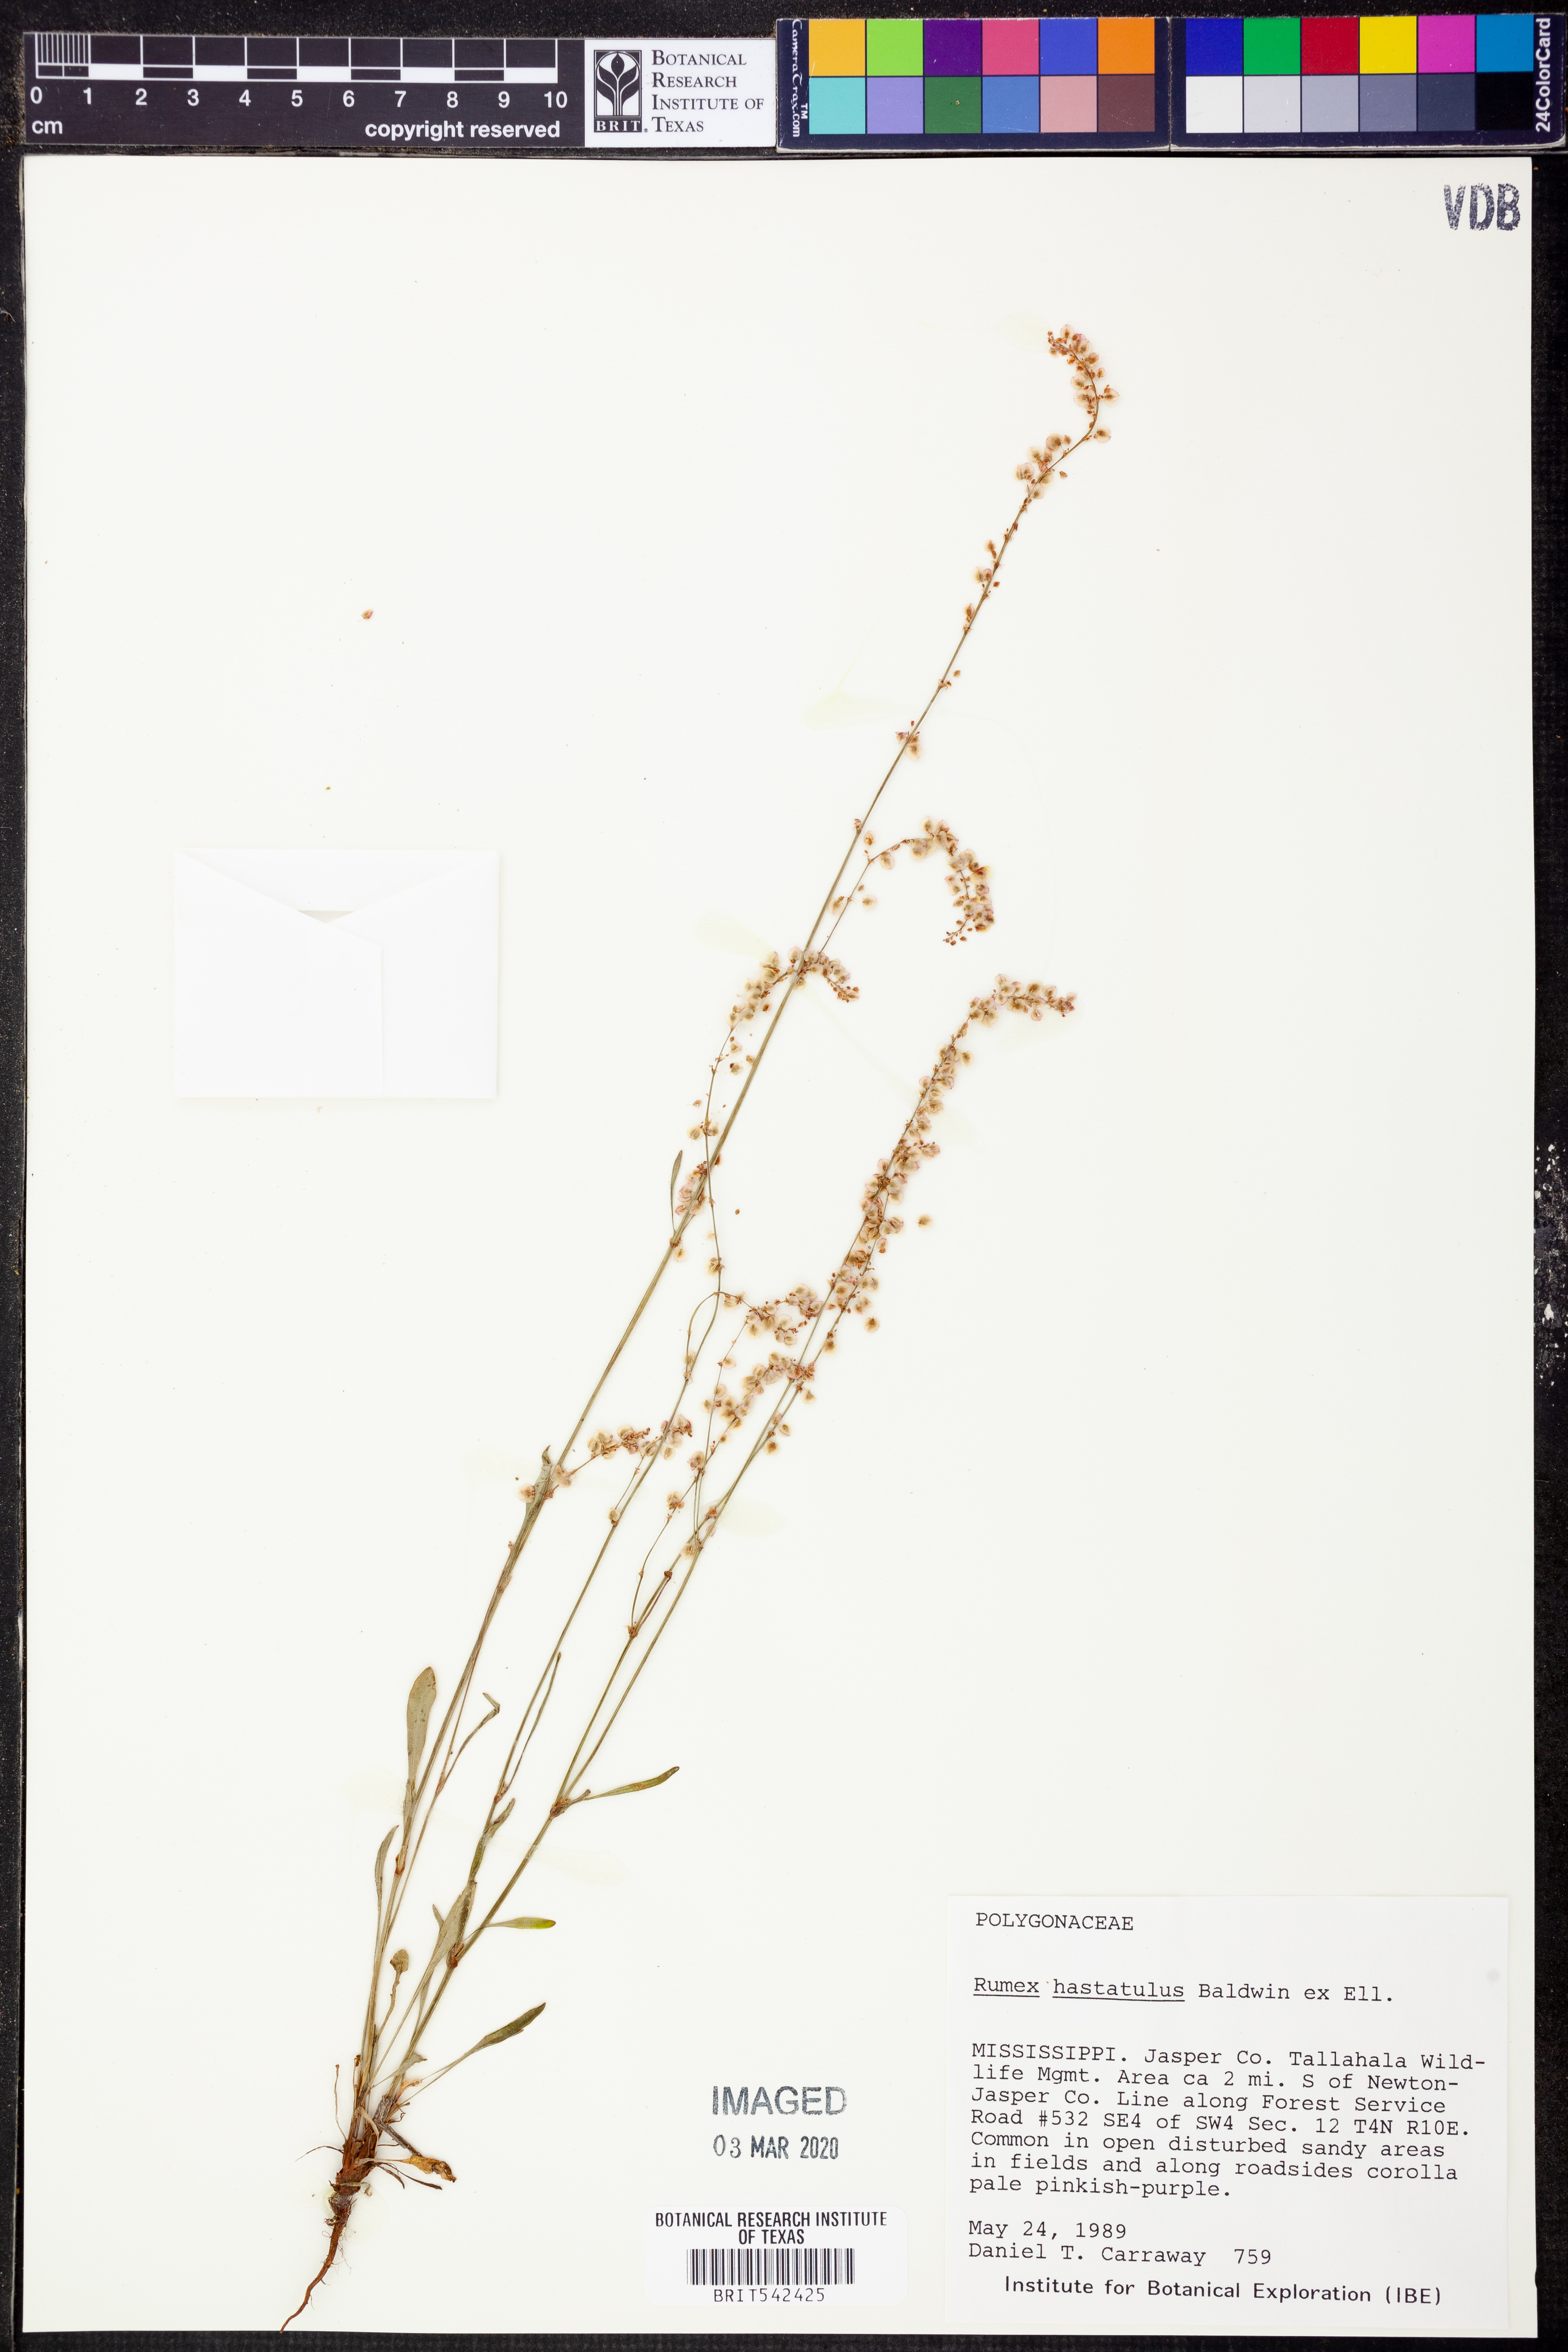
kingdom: Plantae
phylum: Tracheophyta
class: Magnoliopsida
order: Caryophyllales
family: Polygonaceae
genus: Rumex
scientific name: Rumex hastatulus
